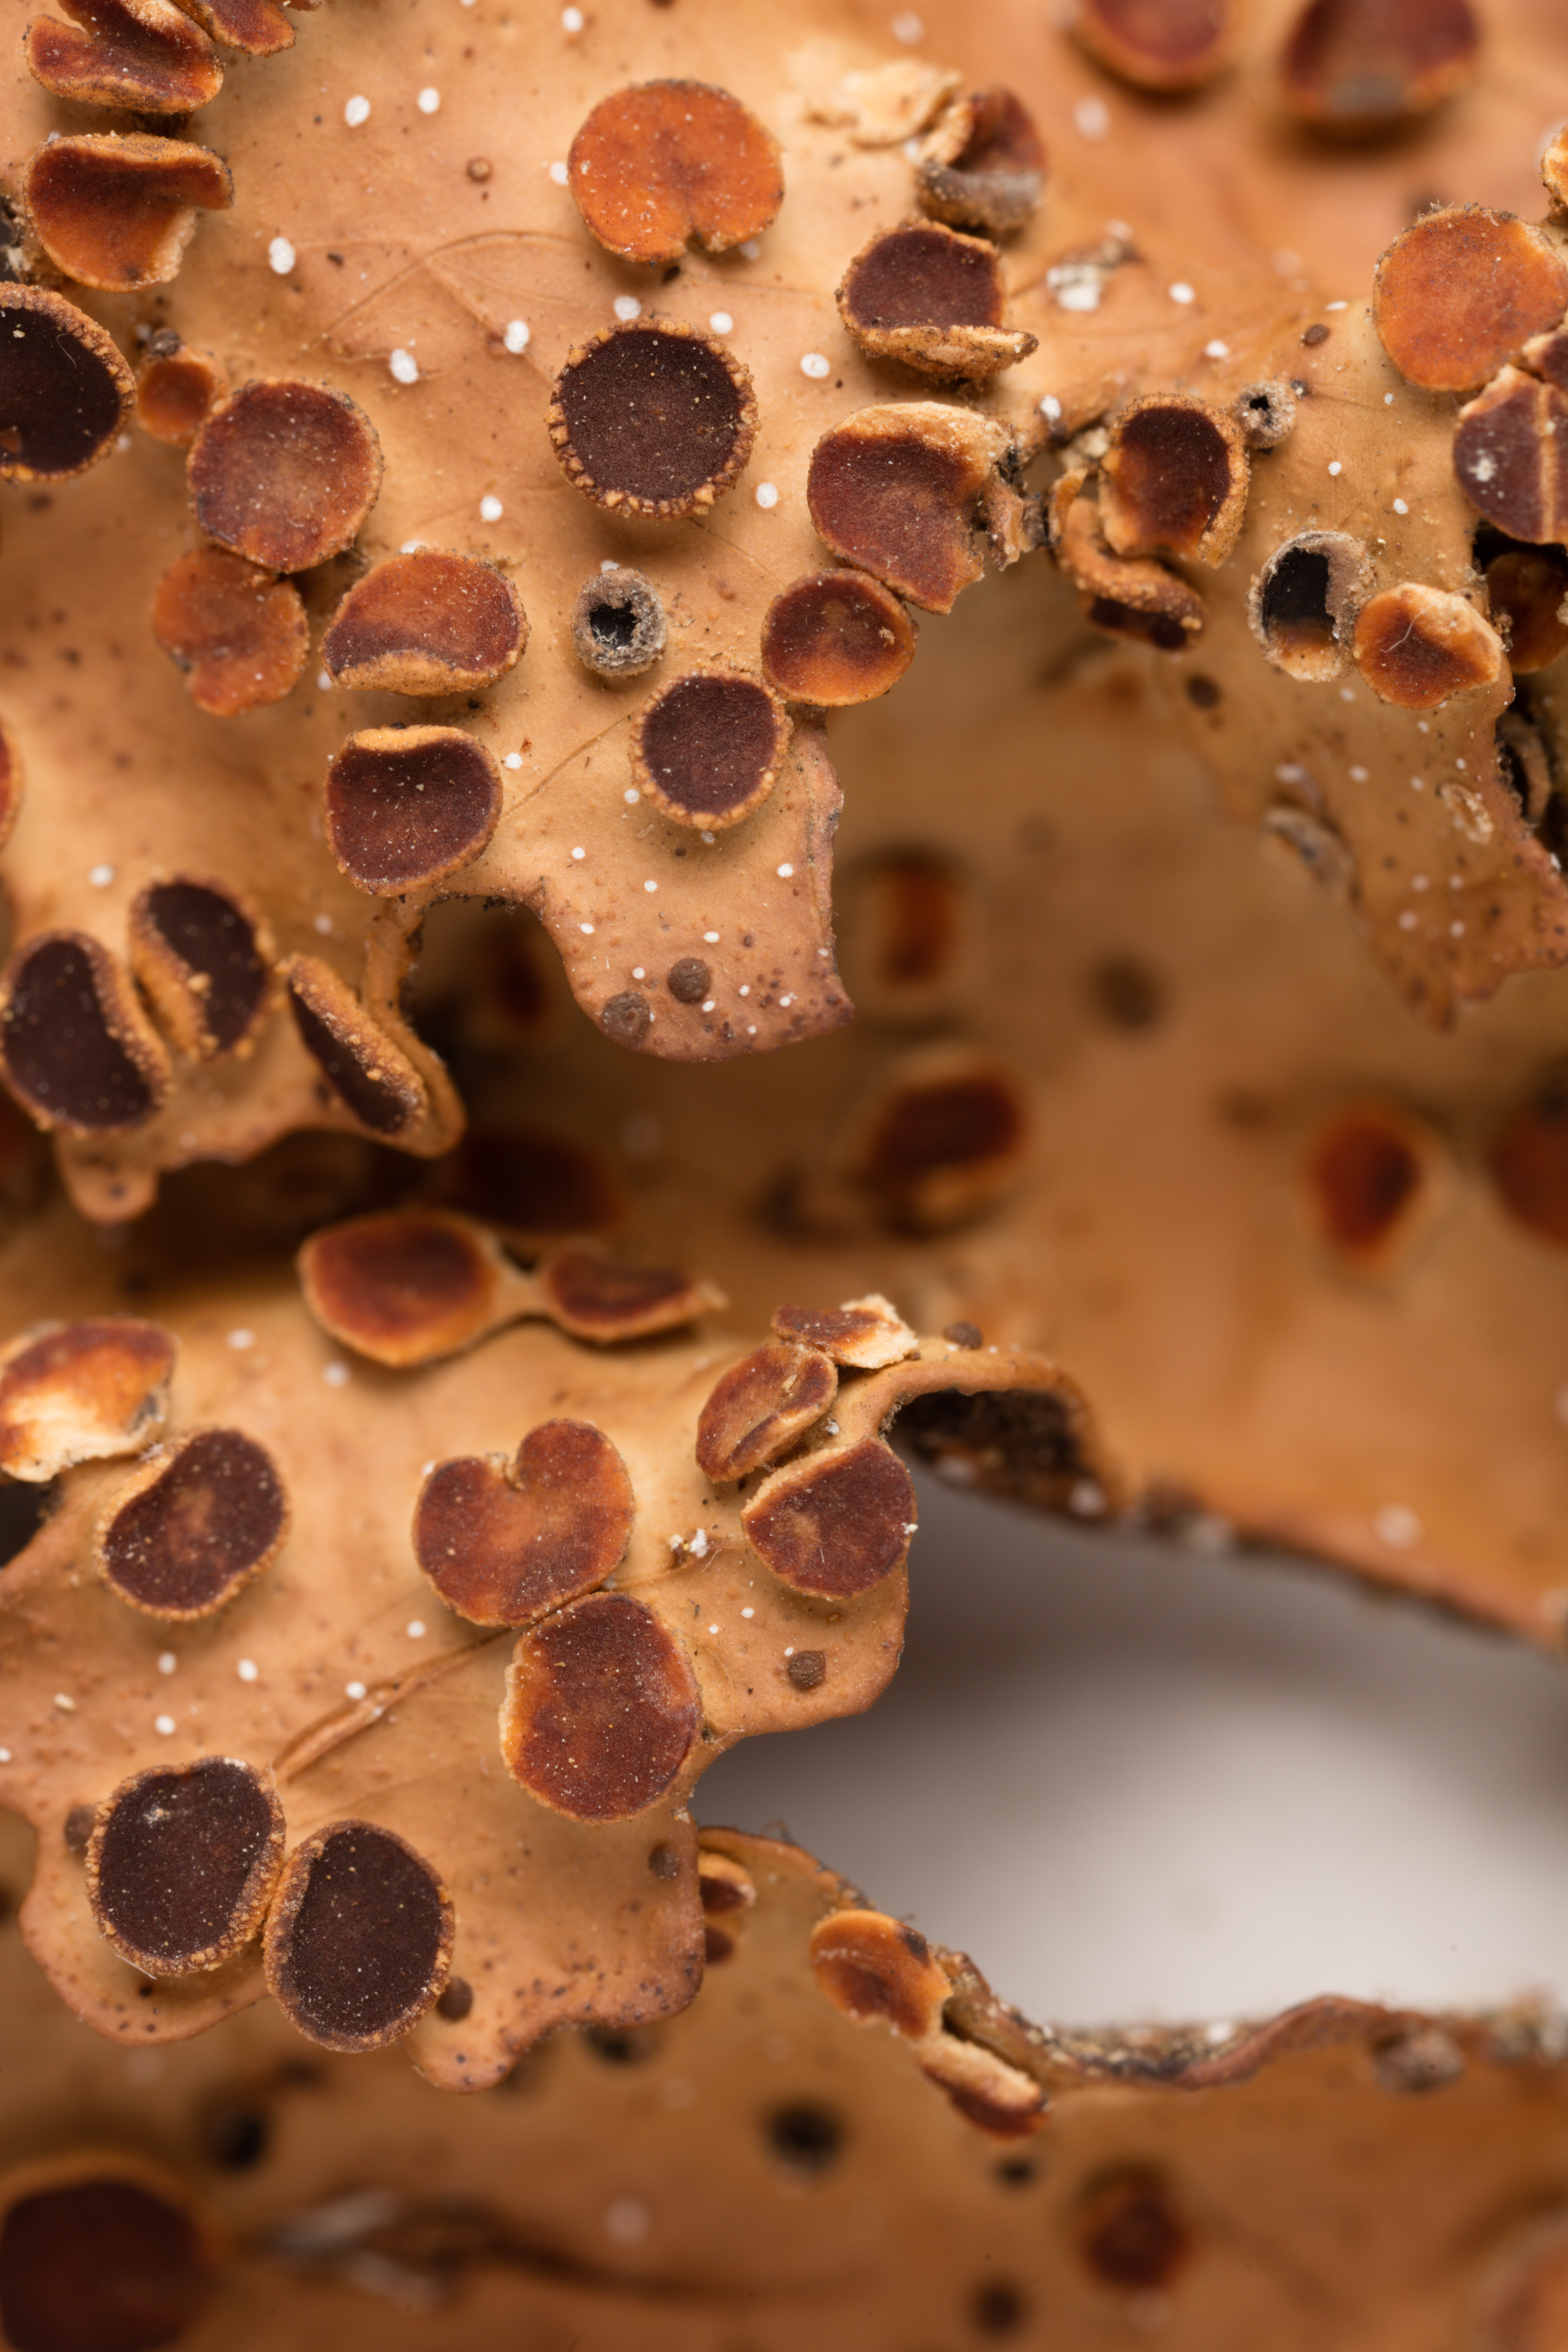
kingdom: Fungi
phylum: Ascomycota
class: Lecanoromycetes
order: Peltigerales
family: Lobariaceae
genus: Pseudocyphellaria
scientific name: Pseudocyphellaria episticta
